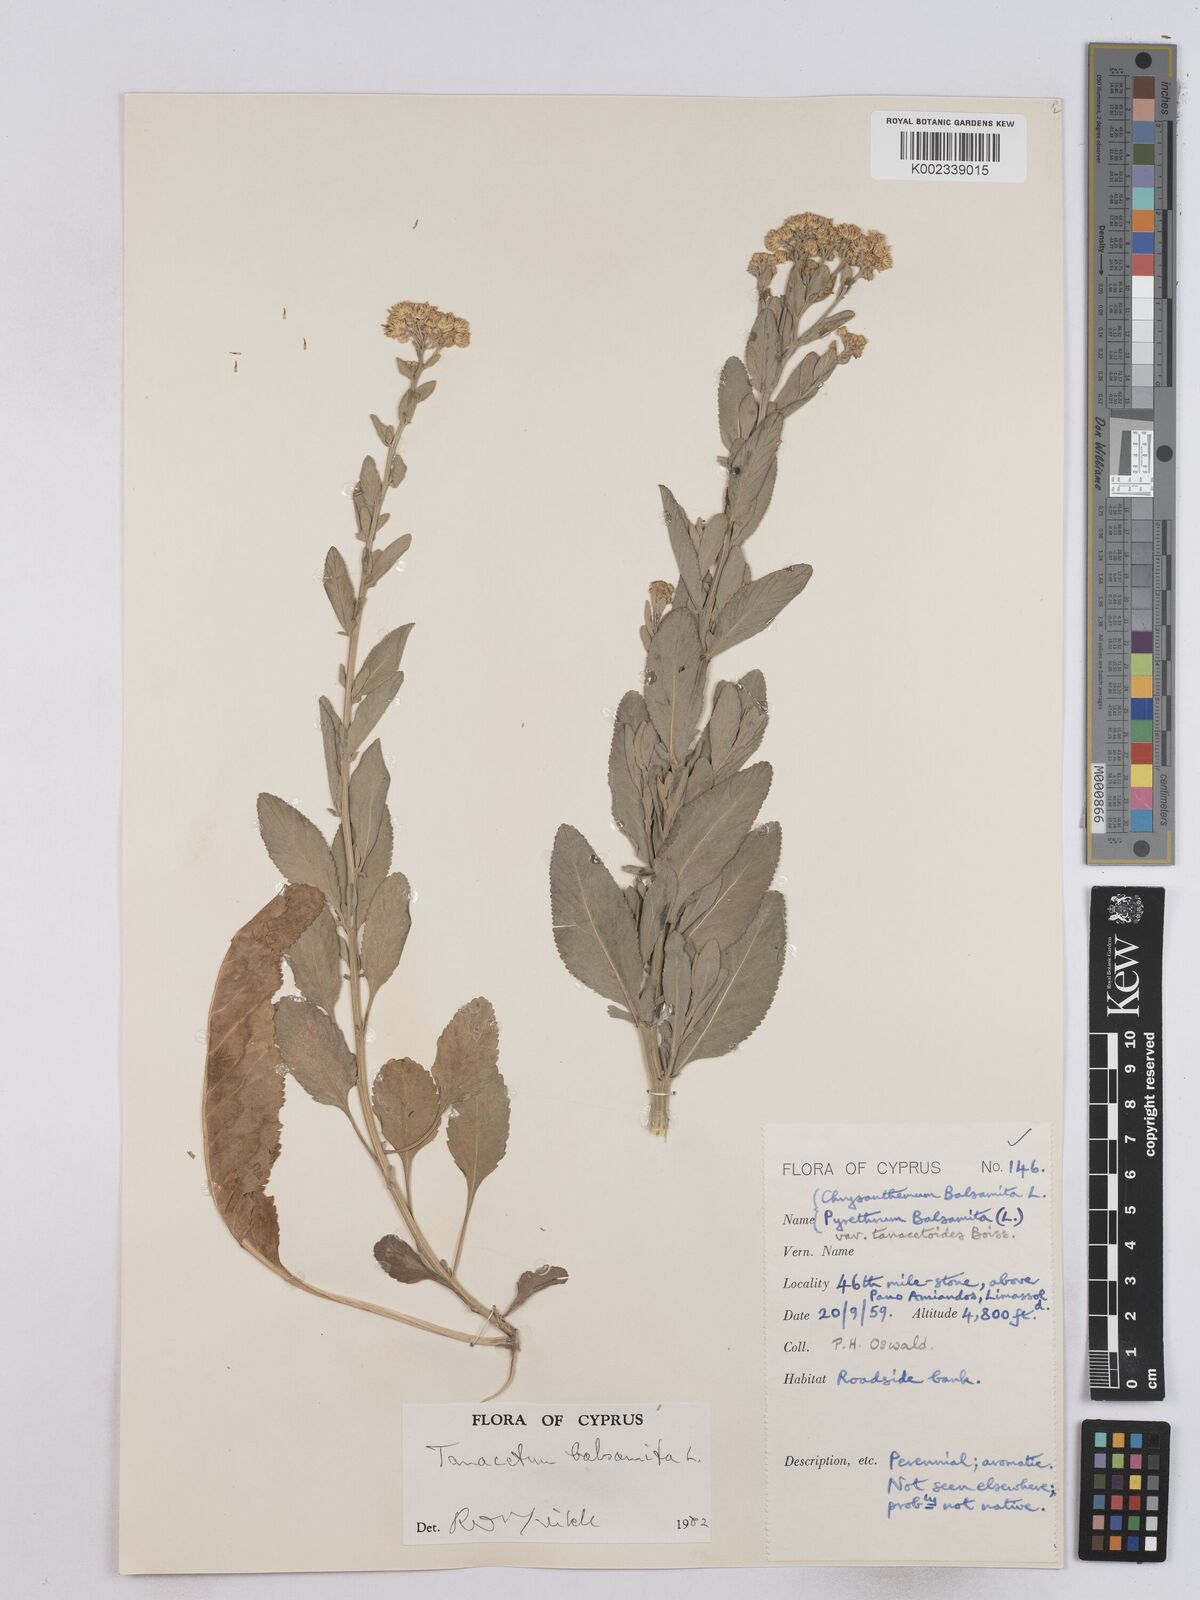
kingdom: Plantae
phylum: Tracheophyta
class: Magnoliopsida
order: Asterales
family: Asteraceae
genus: Tanacetum
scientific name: Tanacetum balsamita
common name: Costmary
